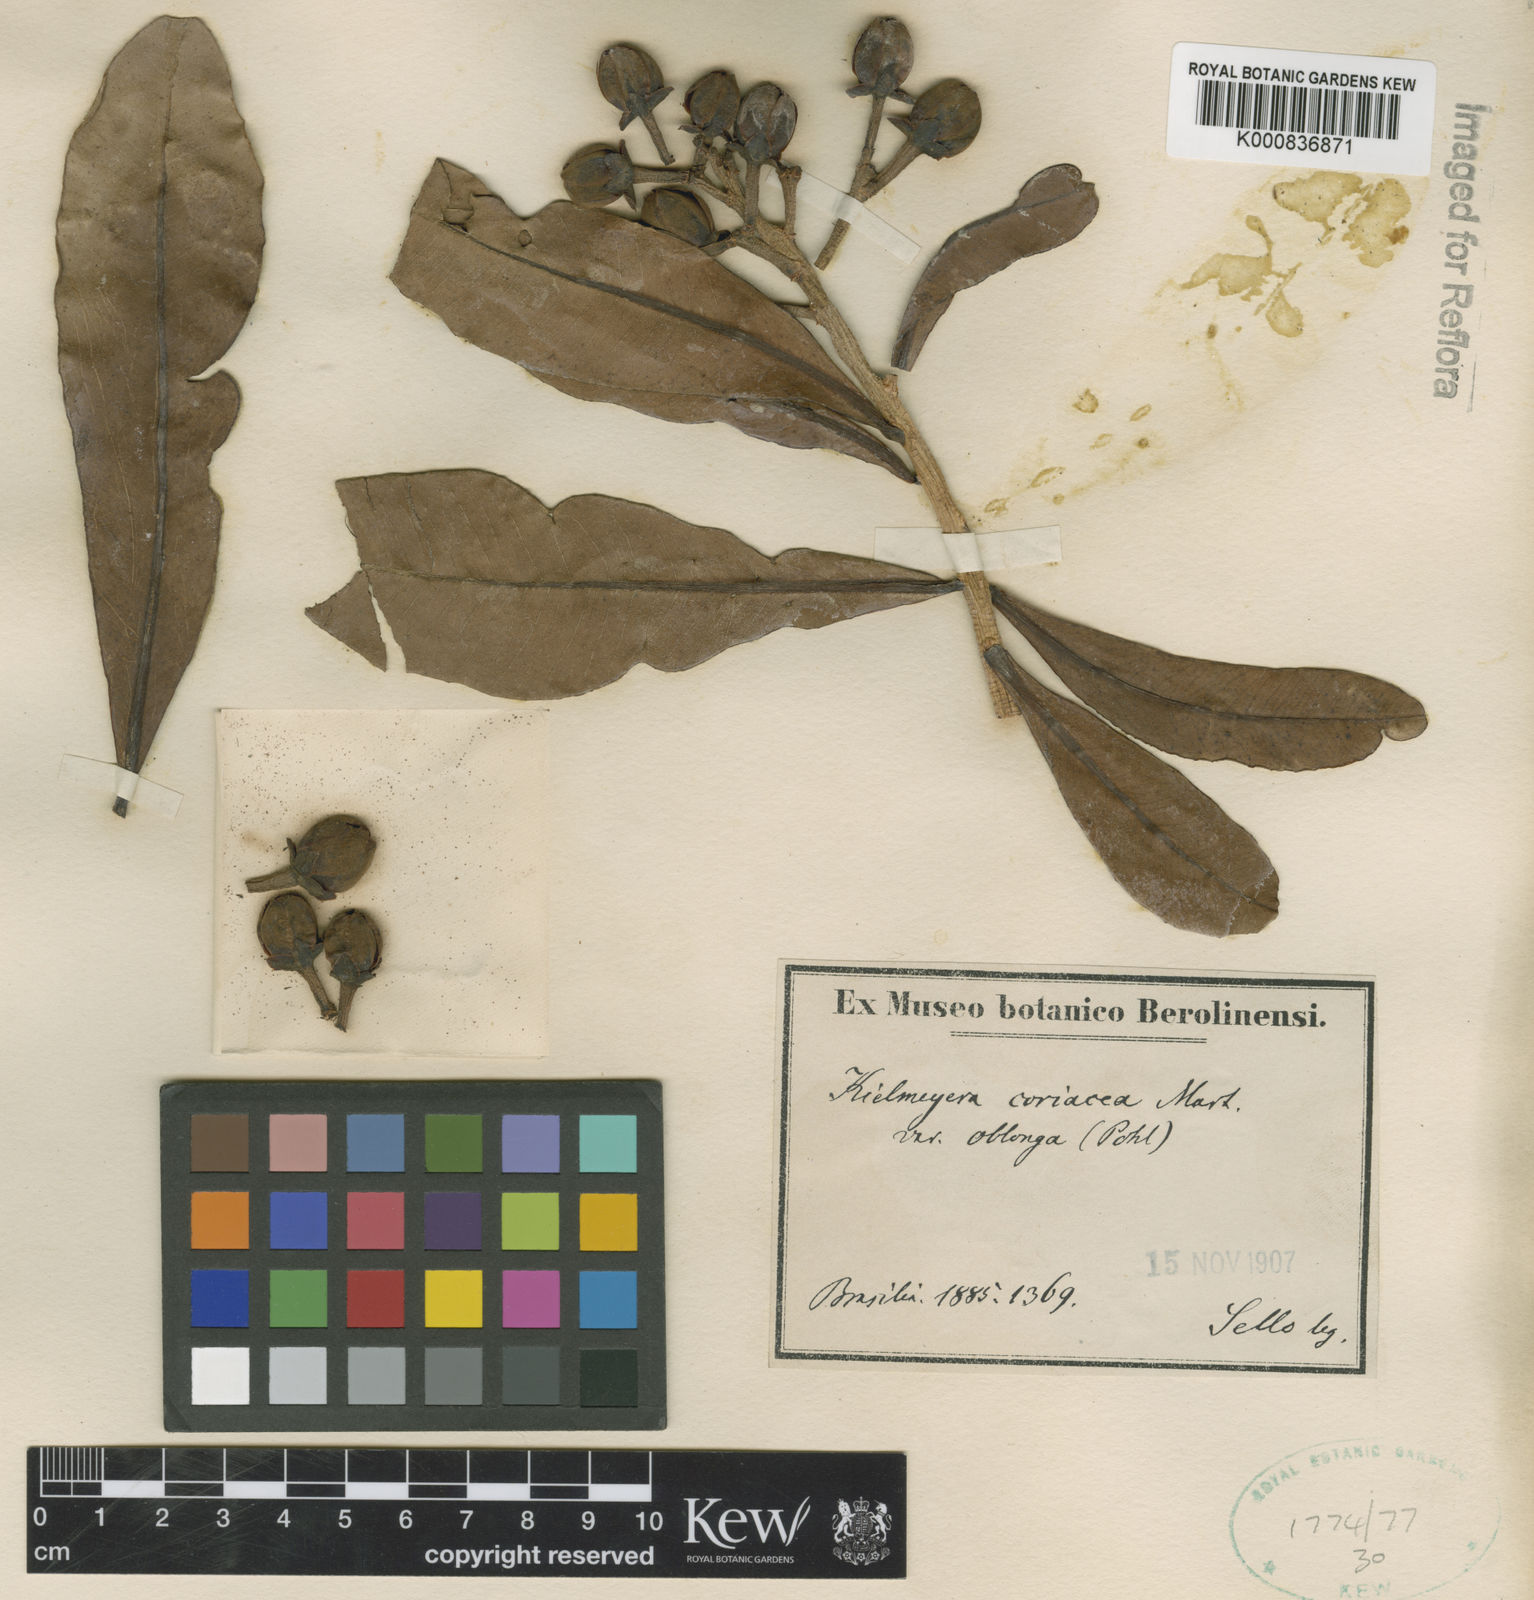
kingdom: Plantae
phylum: Tracheophyta
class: Magnoliopsida
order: Malpighiales
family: Calophyllaceae
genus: Kielmeyera
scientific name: Kielmeyera coriacea
